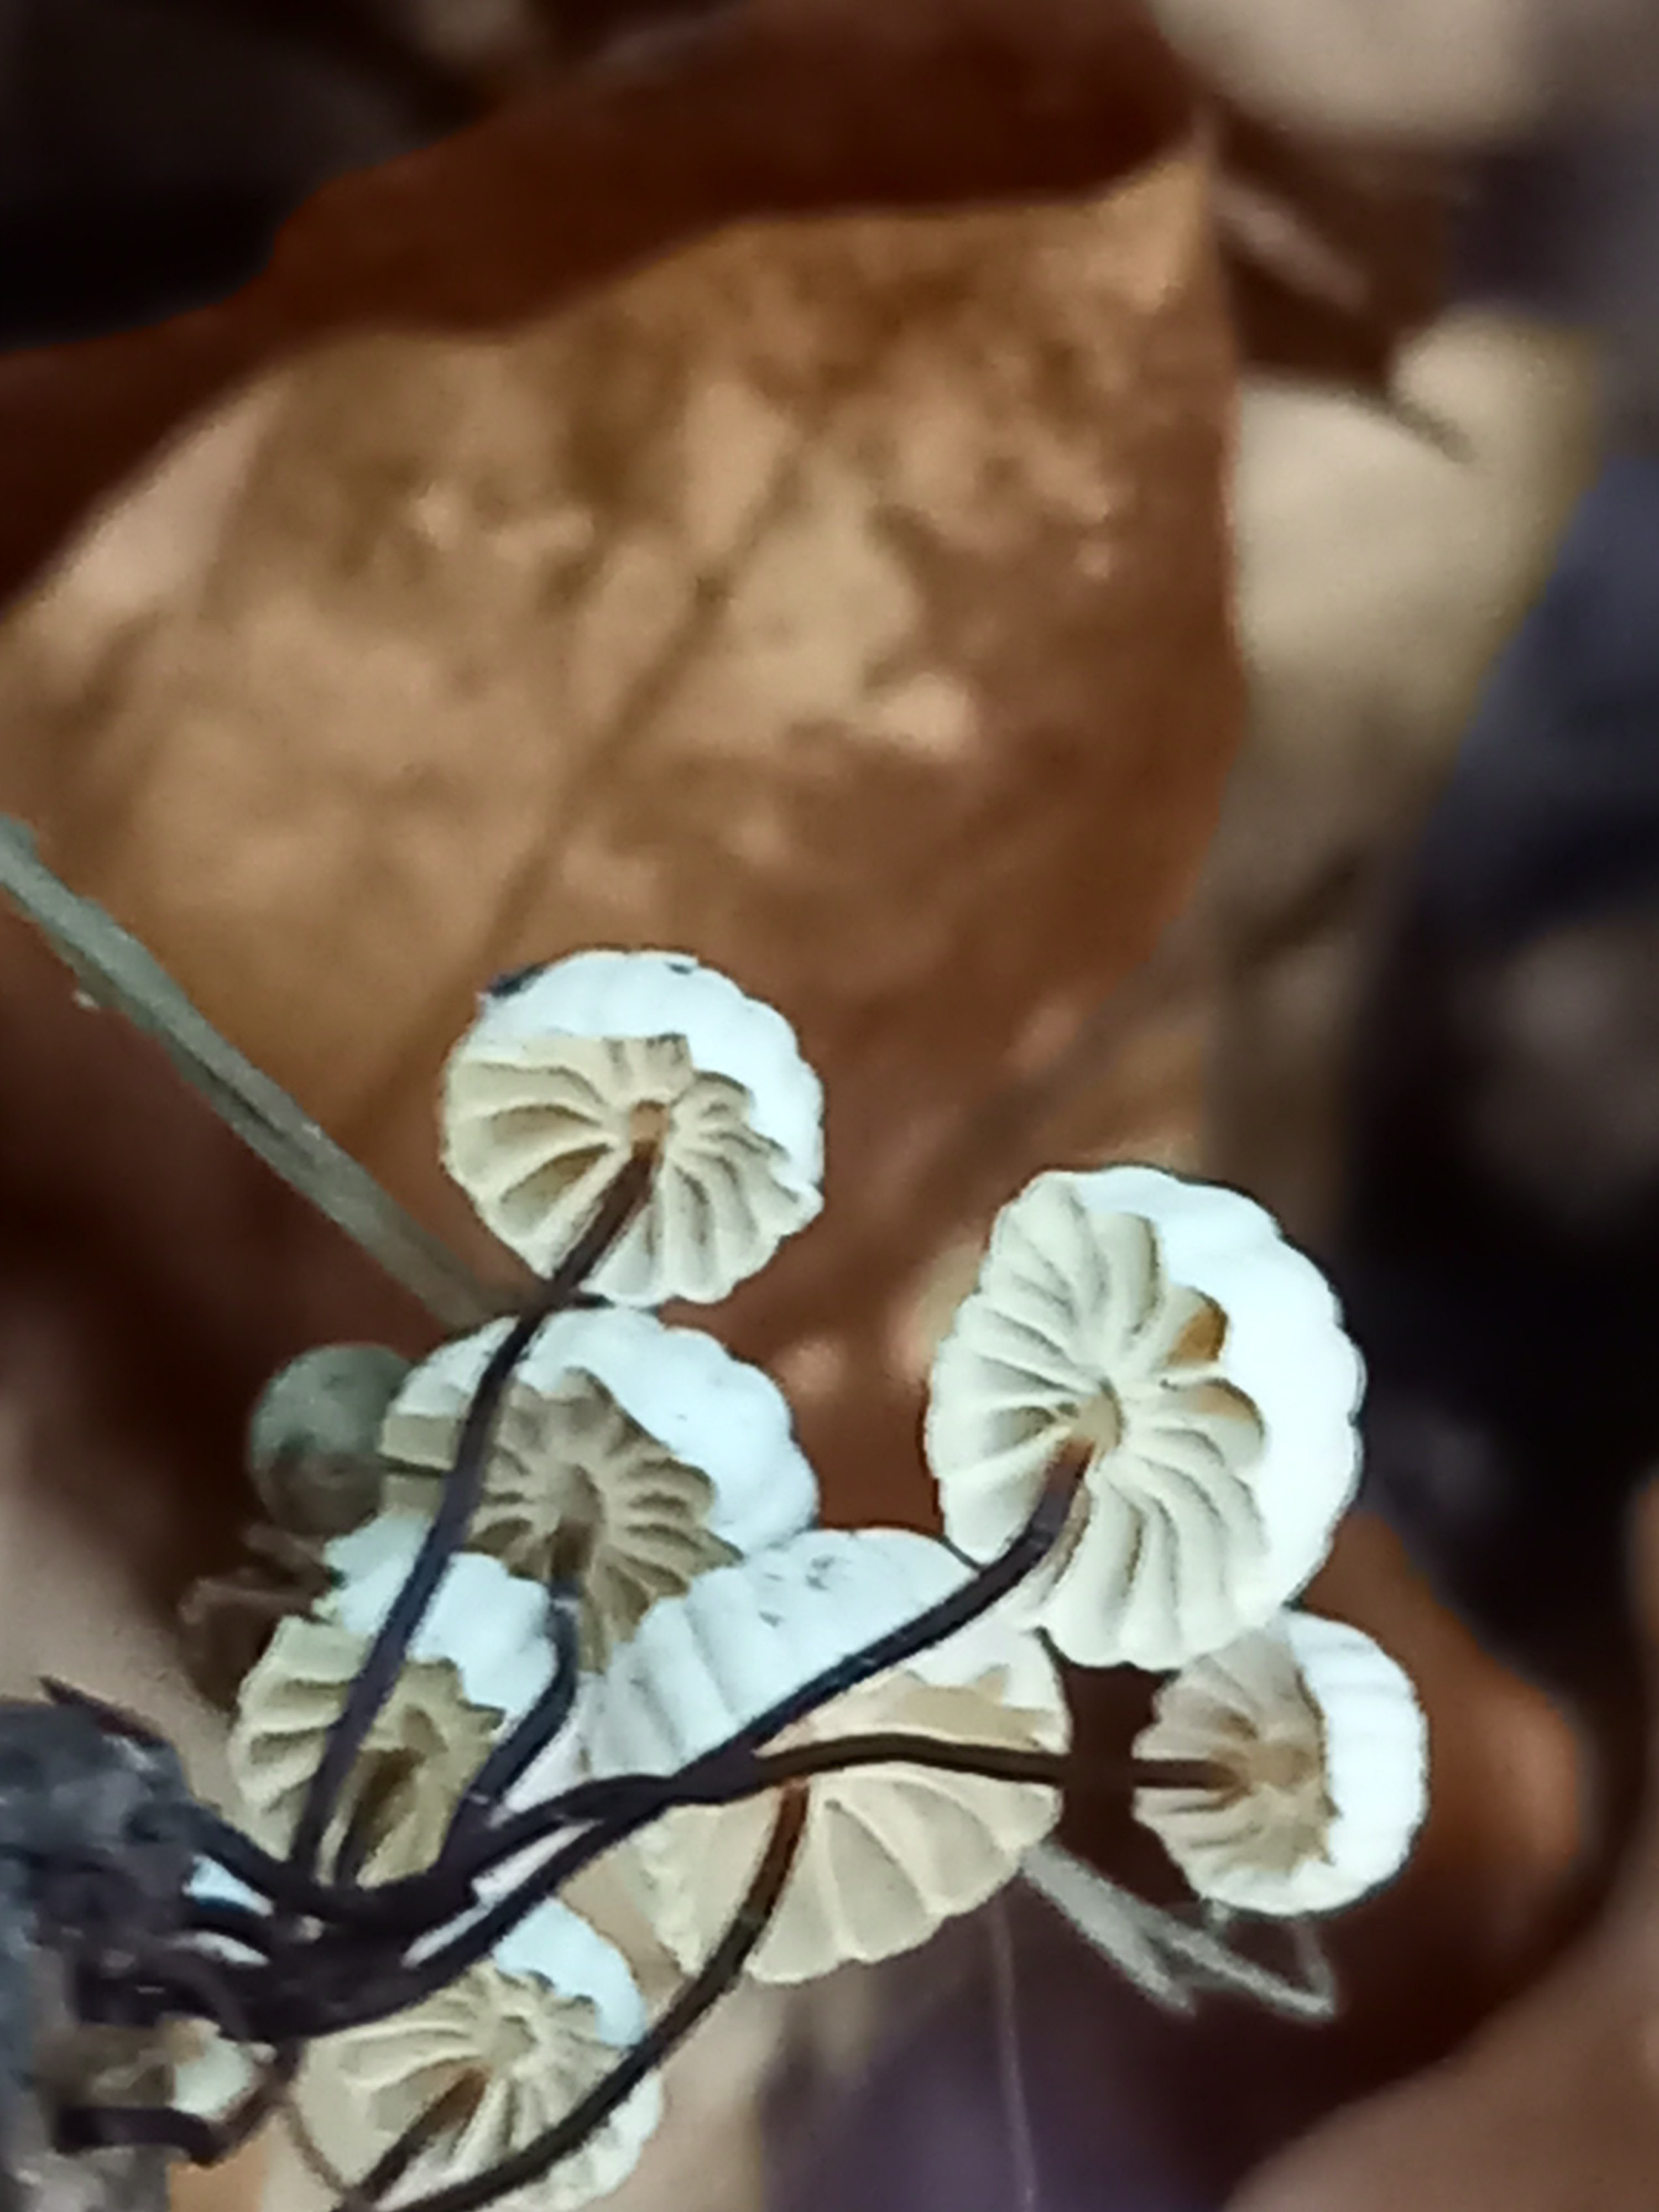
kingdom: Fungi
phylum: Basidiomycota
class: Agaricomycetes
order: Agaricales
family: Marasmiaceae
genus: Marasmius
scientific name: Marasmius rotula
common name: hjul-bruskhat
